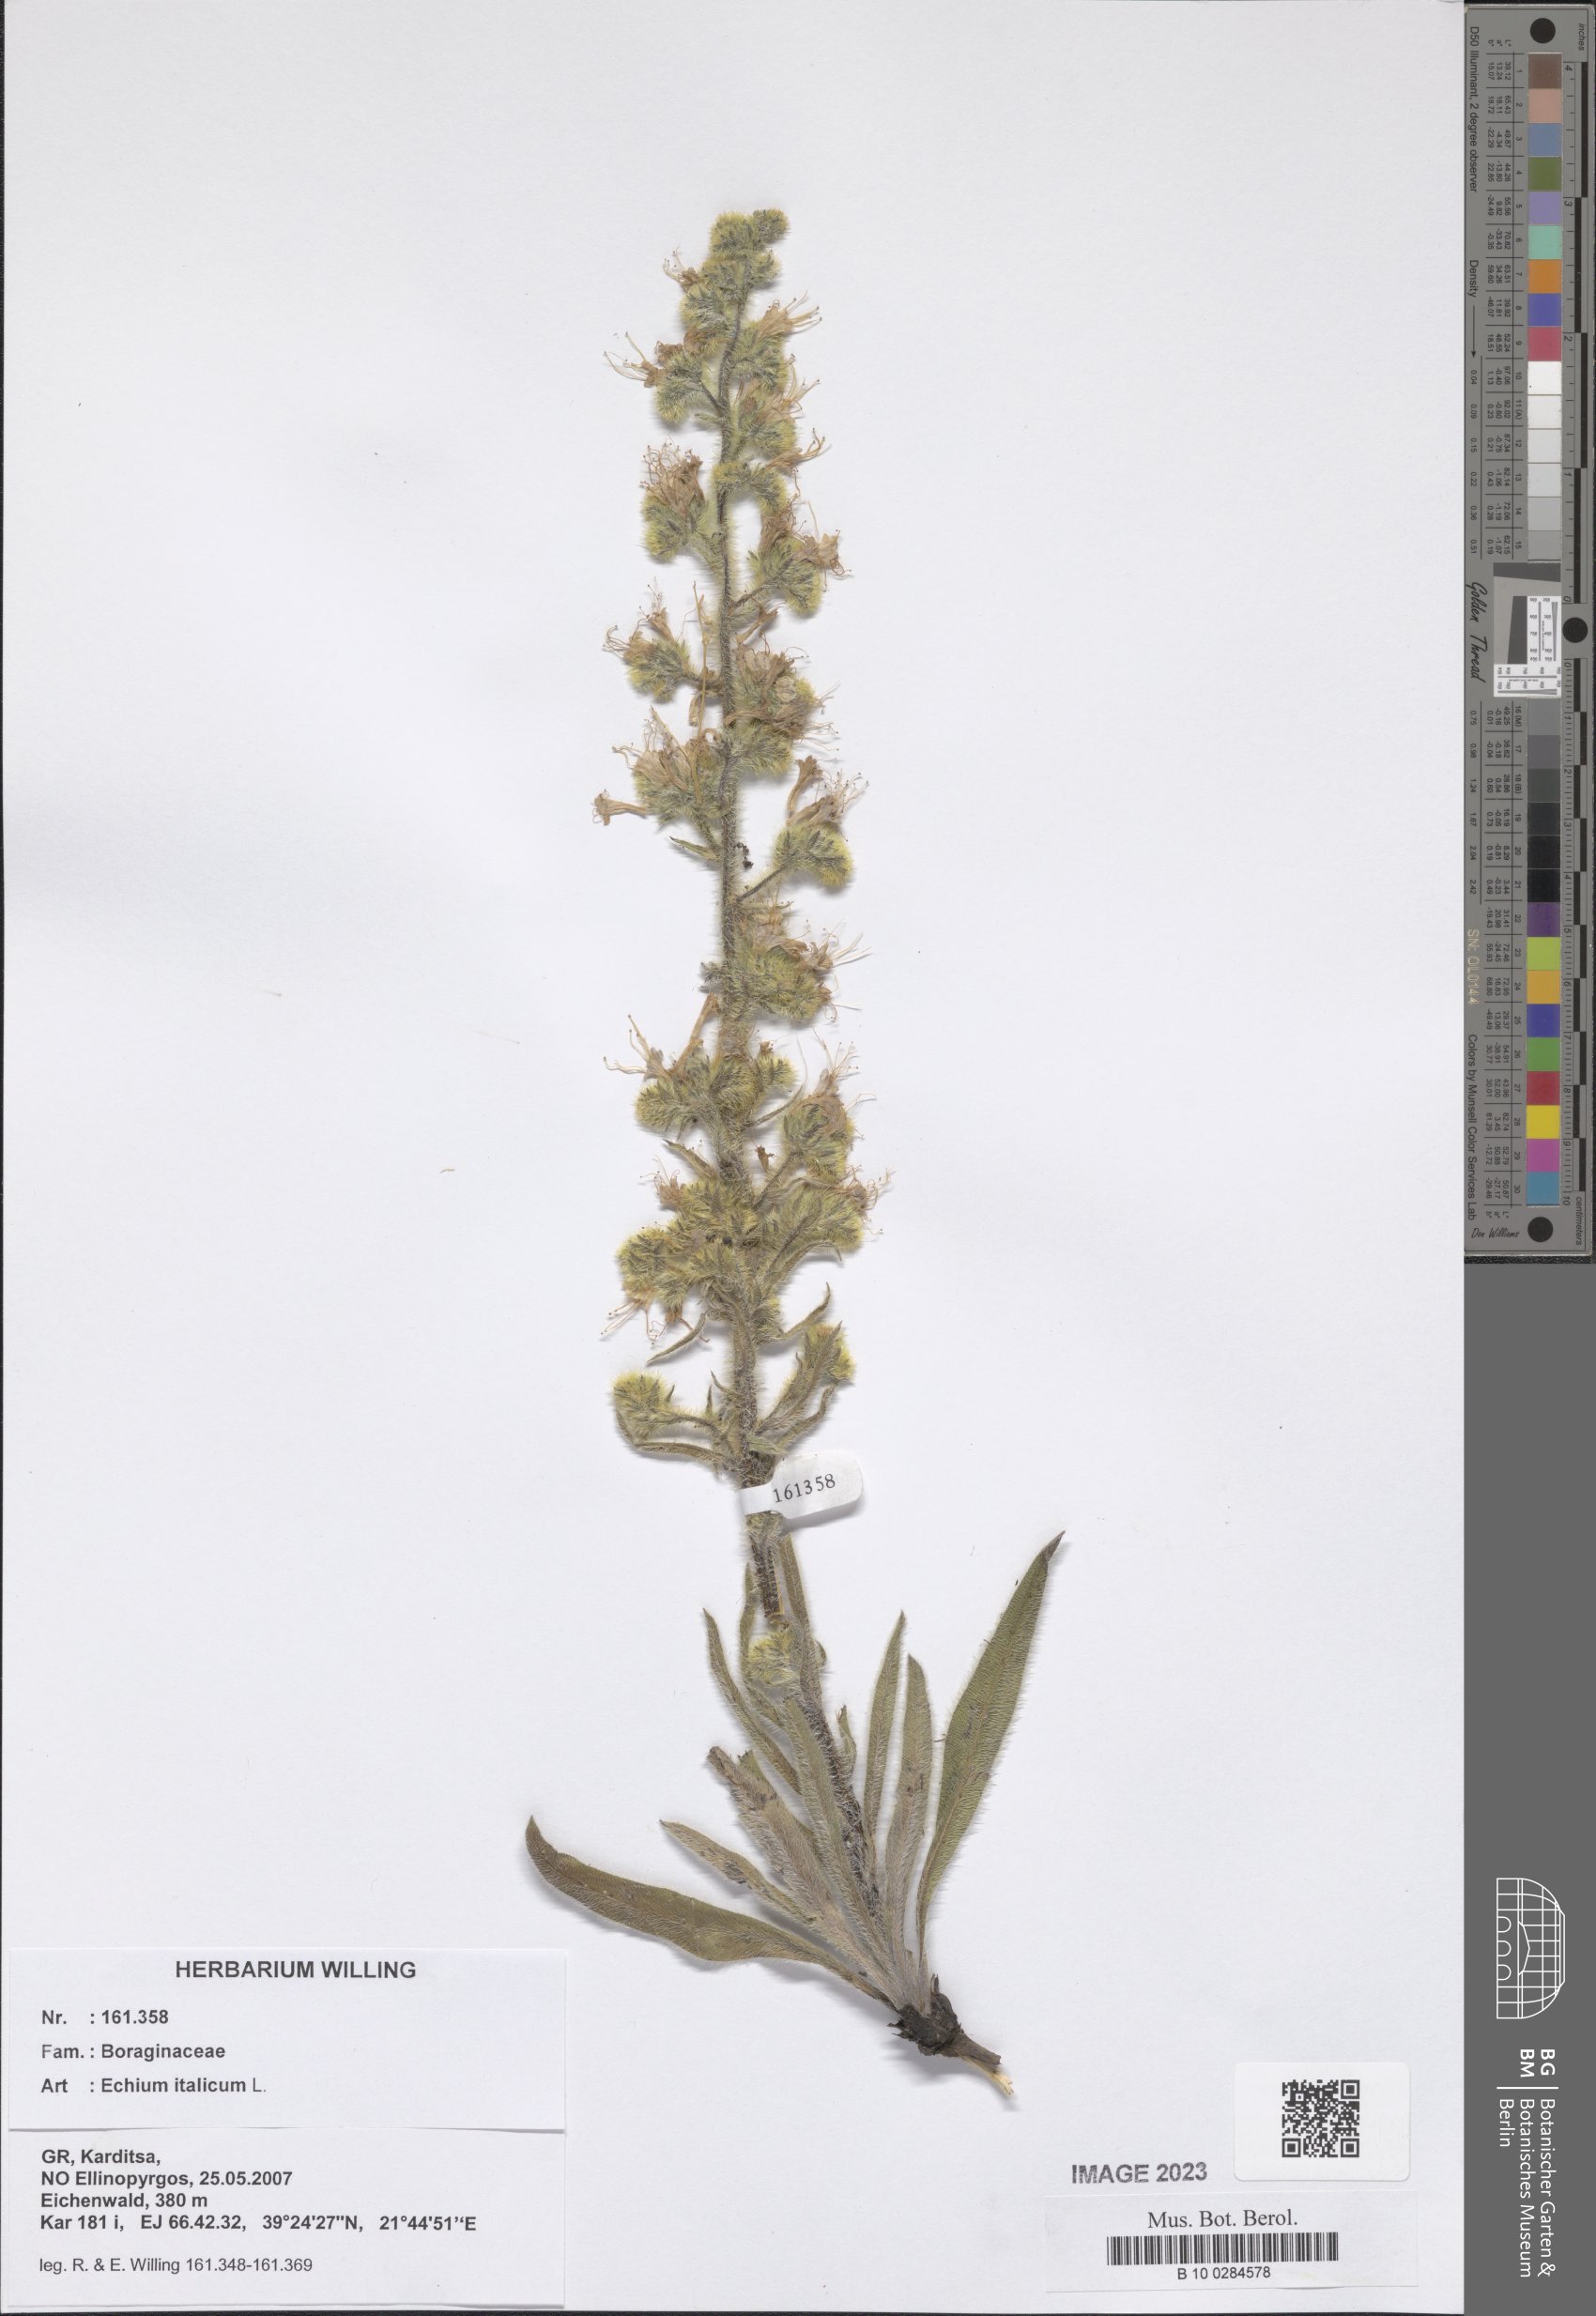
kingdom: Plantae
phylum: Tracheophyta
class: Magnoliopsida
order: Boraginales
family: Boraginaceae
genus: Echium
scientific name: Echium italicum
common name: Italian viper's bugloss
